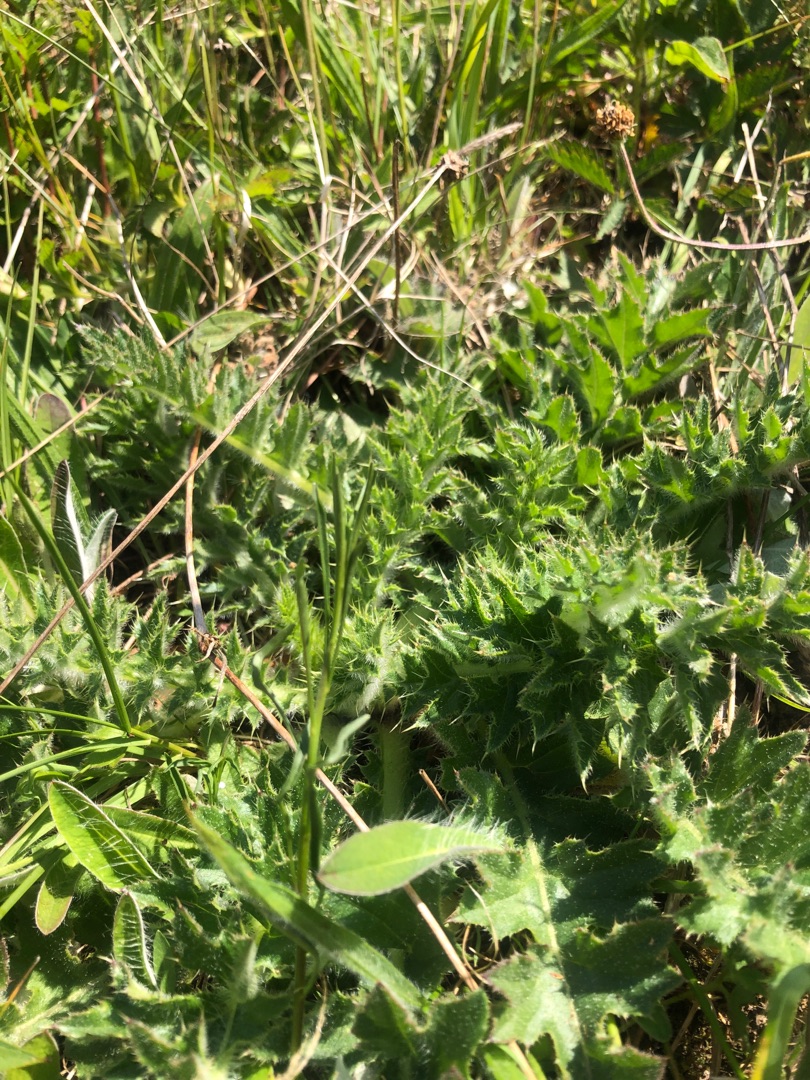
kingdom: Plantae
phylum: Tracheophyta
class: Magnoliopsida
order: Asterales
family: Asteraceae
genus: Cirsium
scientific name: Cirsium acaule
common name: Lav tidsel
